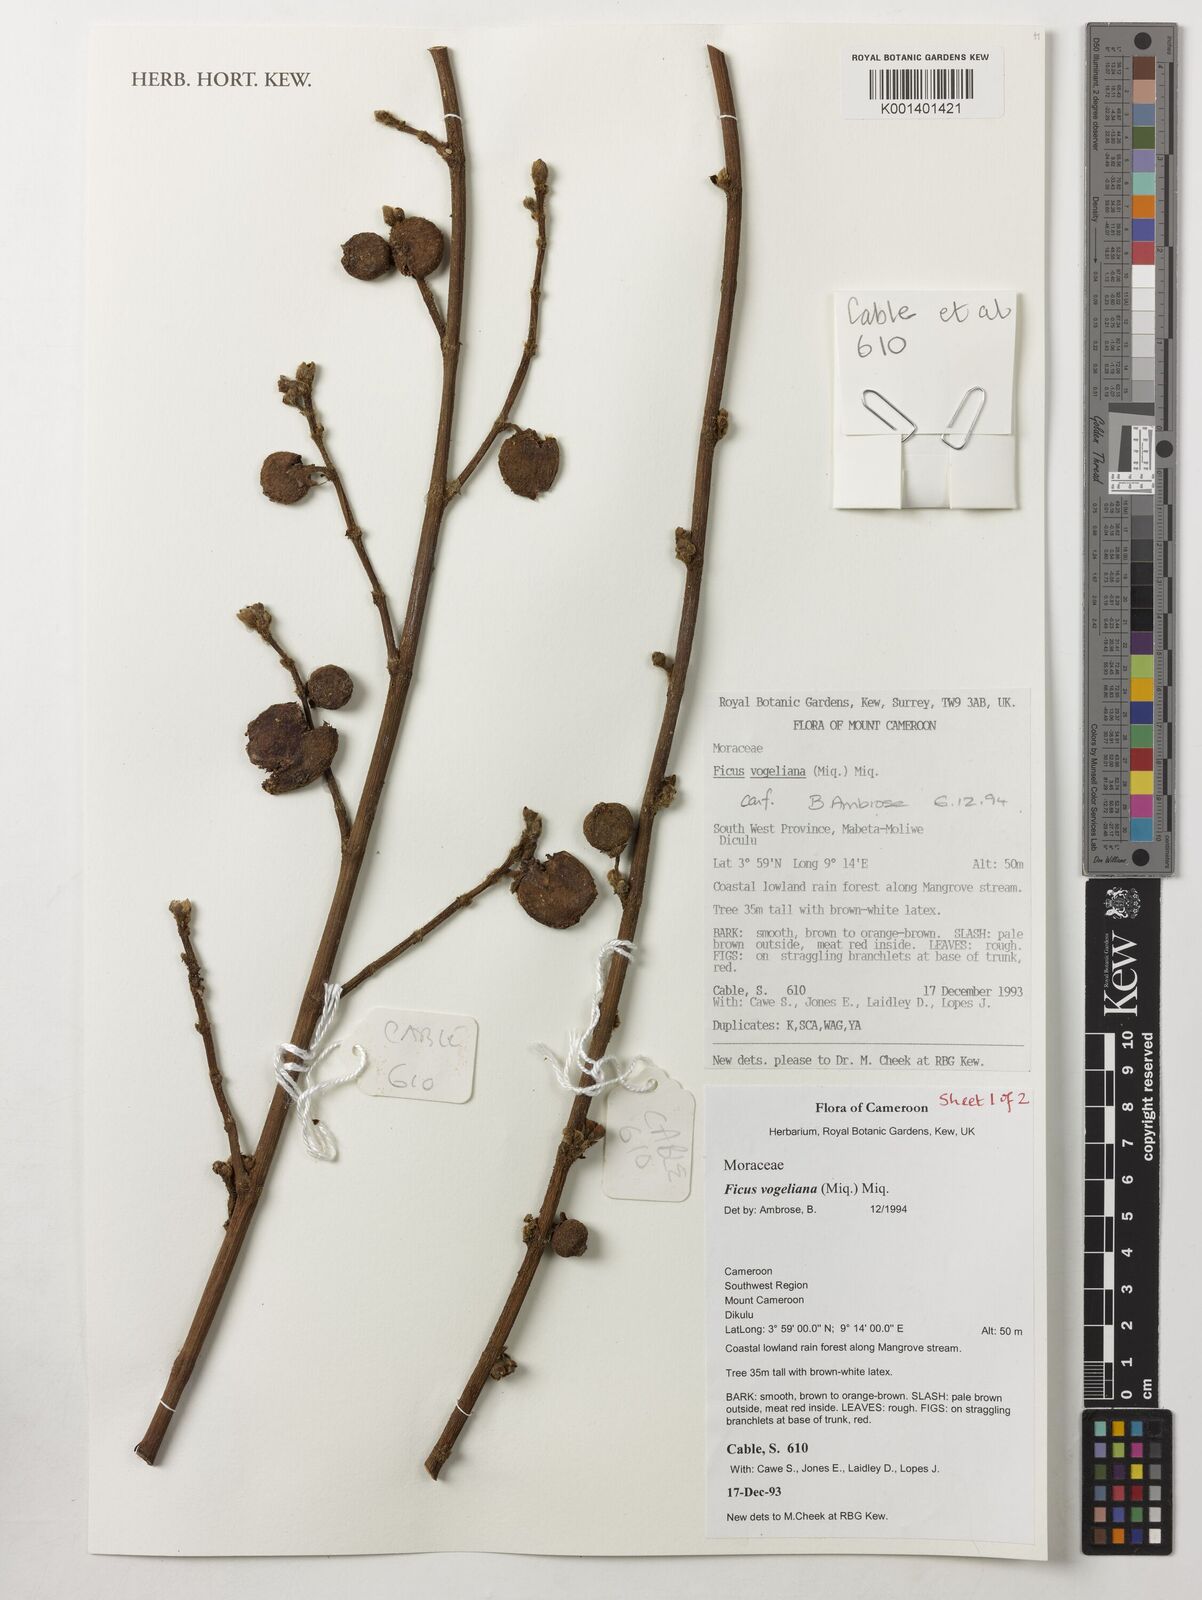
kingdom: Plantae
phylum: Tracheophyta
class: Magnoliopsida
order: Rosales
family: Moraceae
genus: Ficus
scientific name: Ficus vogeliana
